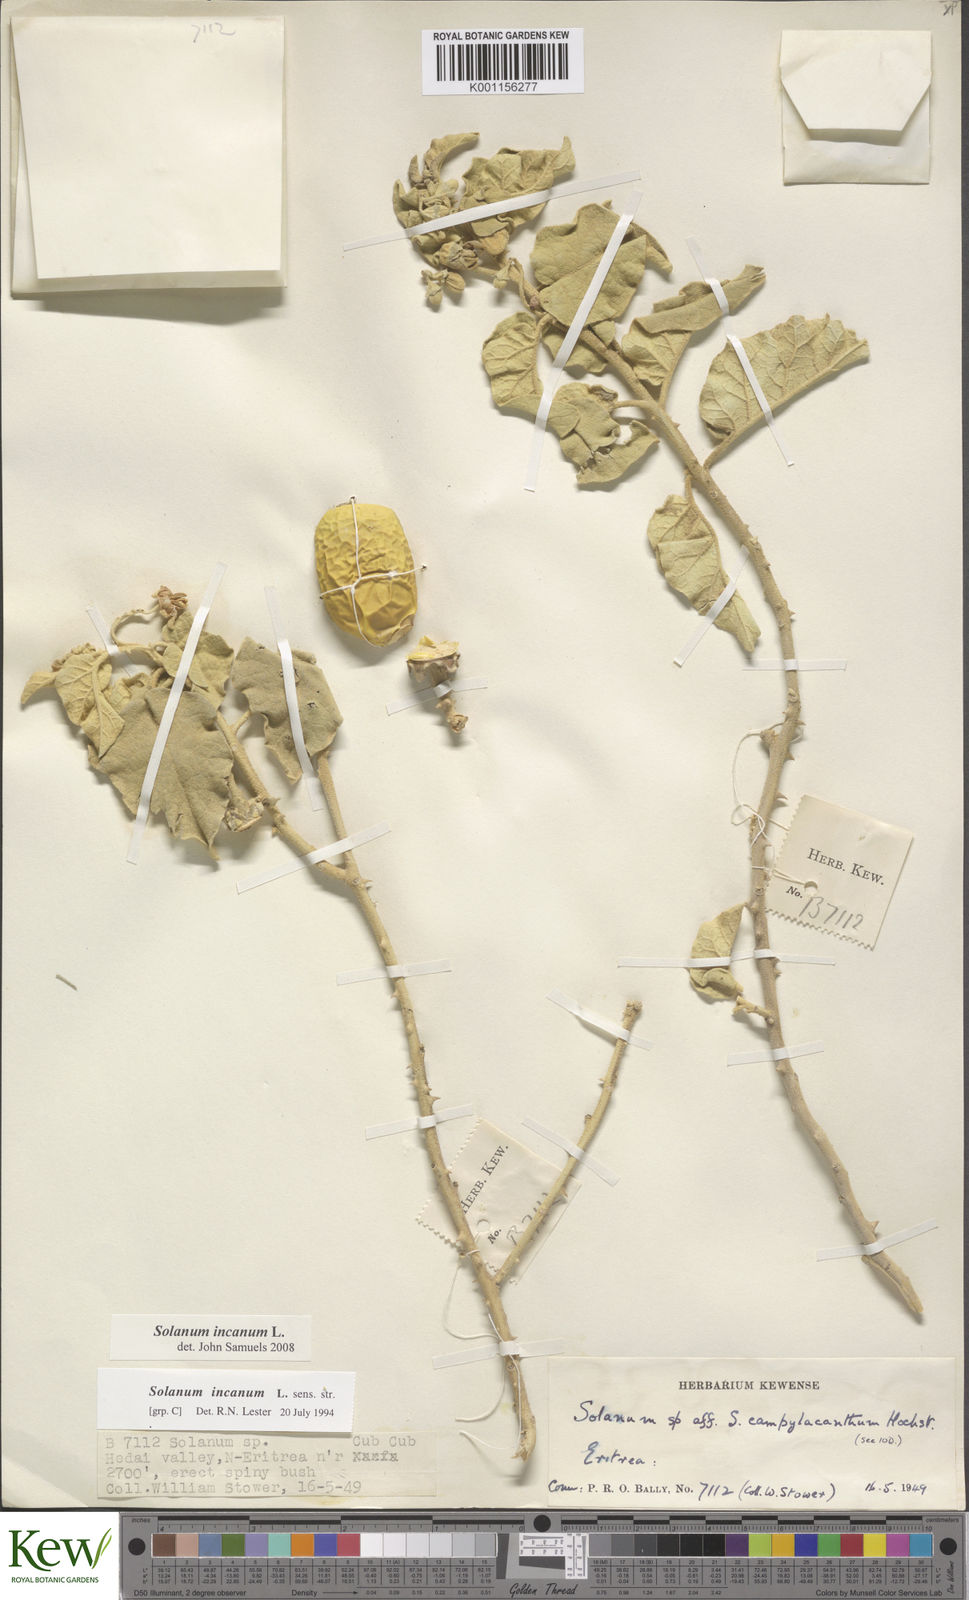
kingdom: Plantae
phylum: Tracheophyta
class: Magnoliopsida
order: Solanales
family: Solanaceae
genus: Solanum
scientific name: Solanum incanum
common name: Bitter apple
